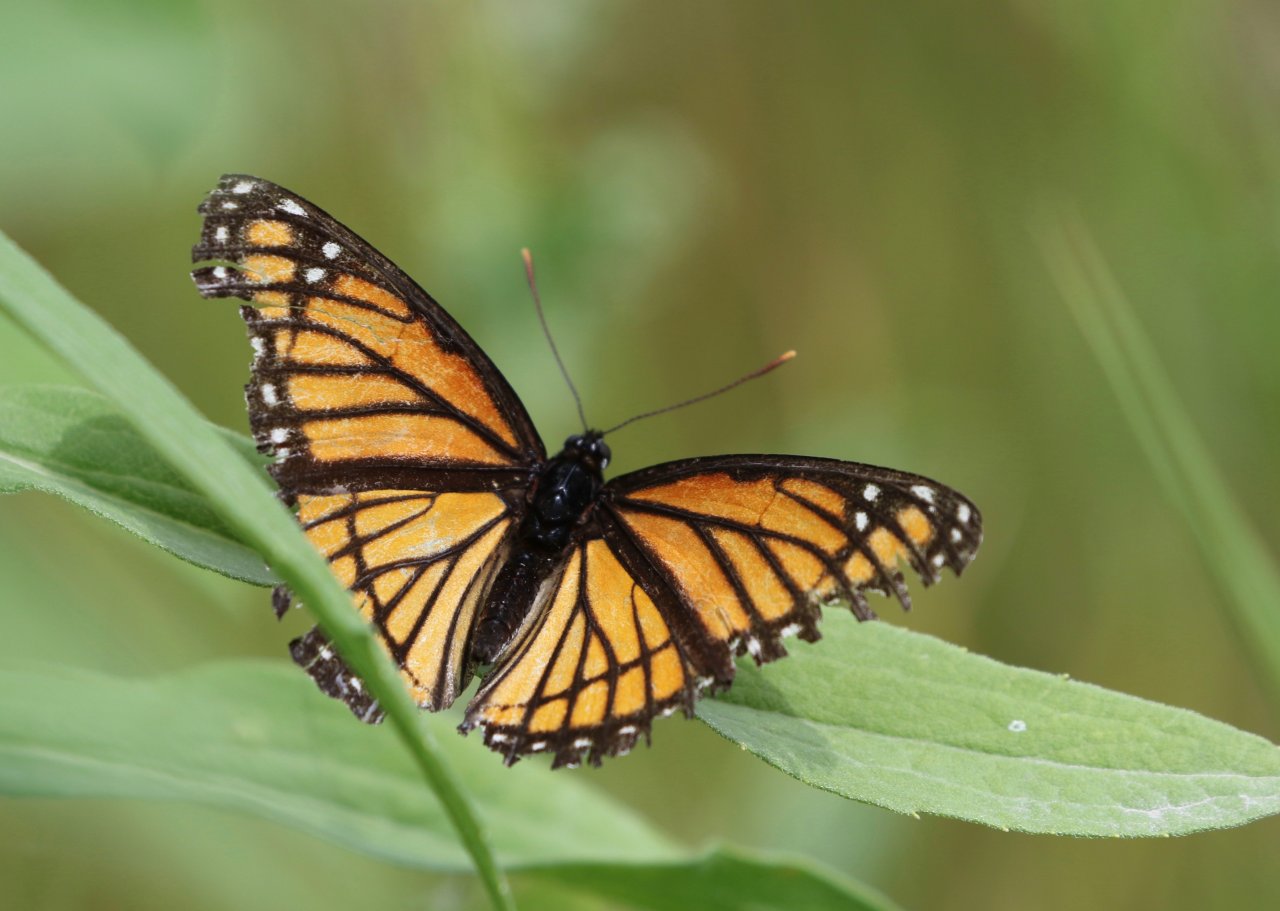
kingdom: Animalia
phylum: Arthropoda
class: Insecta
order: Lepidoptera
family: Nymphalidae
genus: Limenitis
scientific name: Limenitis archippus
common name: Viceroy
